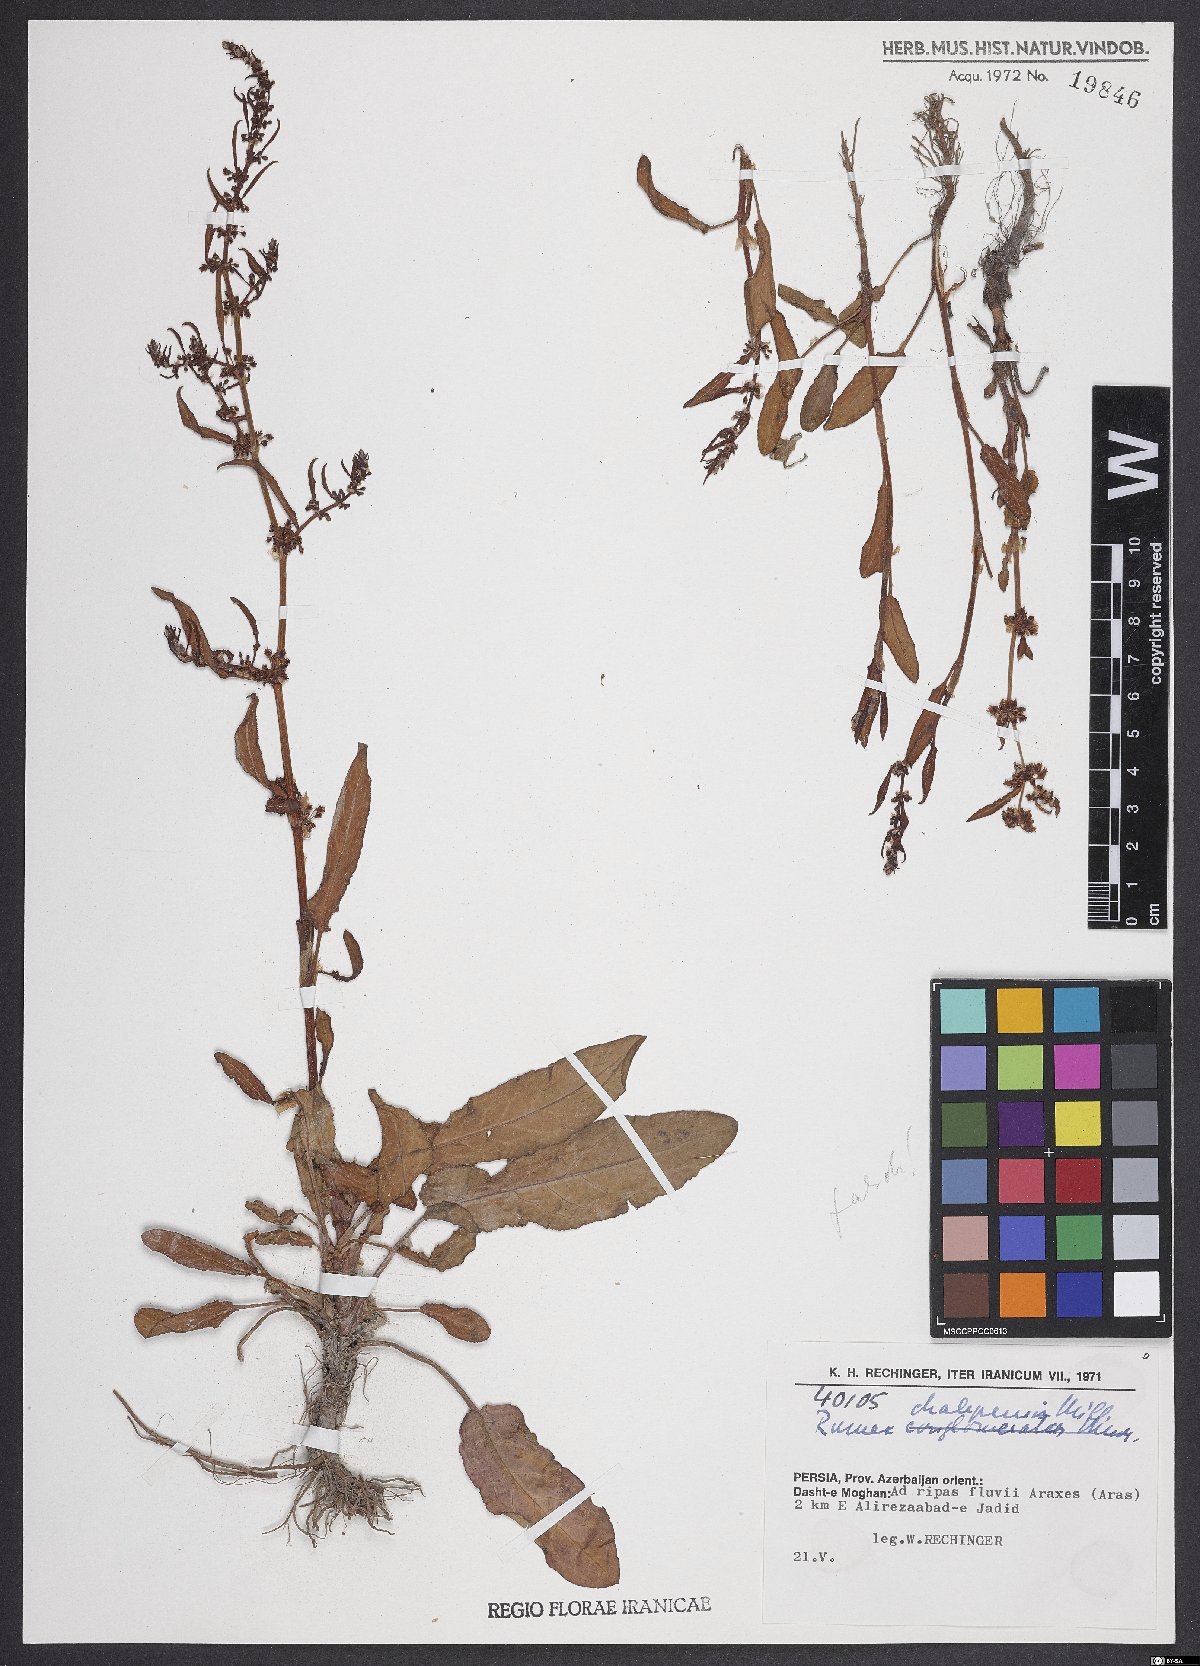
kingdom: Plantae
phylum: Tracheophyta
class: Magnoliopsida
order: Caryophyllales
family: Polygonaceae
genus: Rumex
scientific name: Rumex chalepensis
